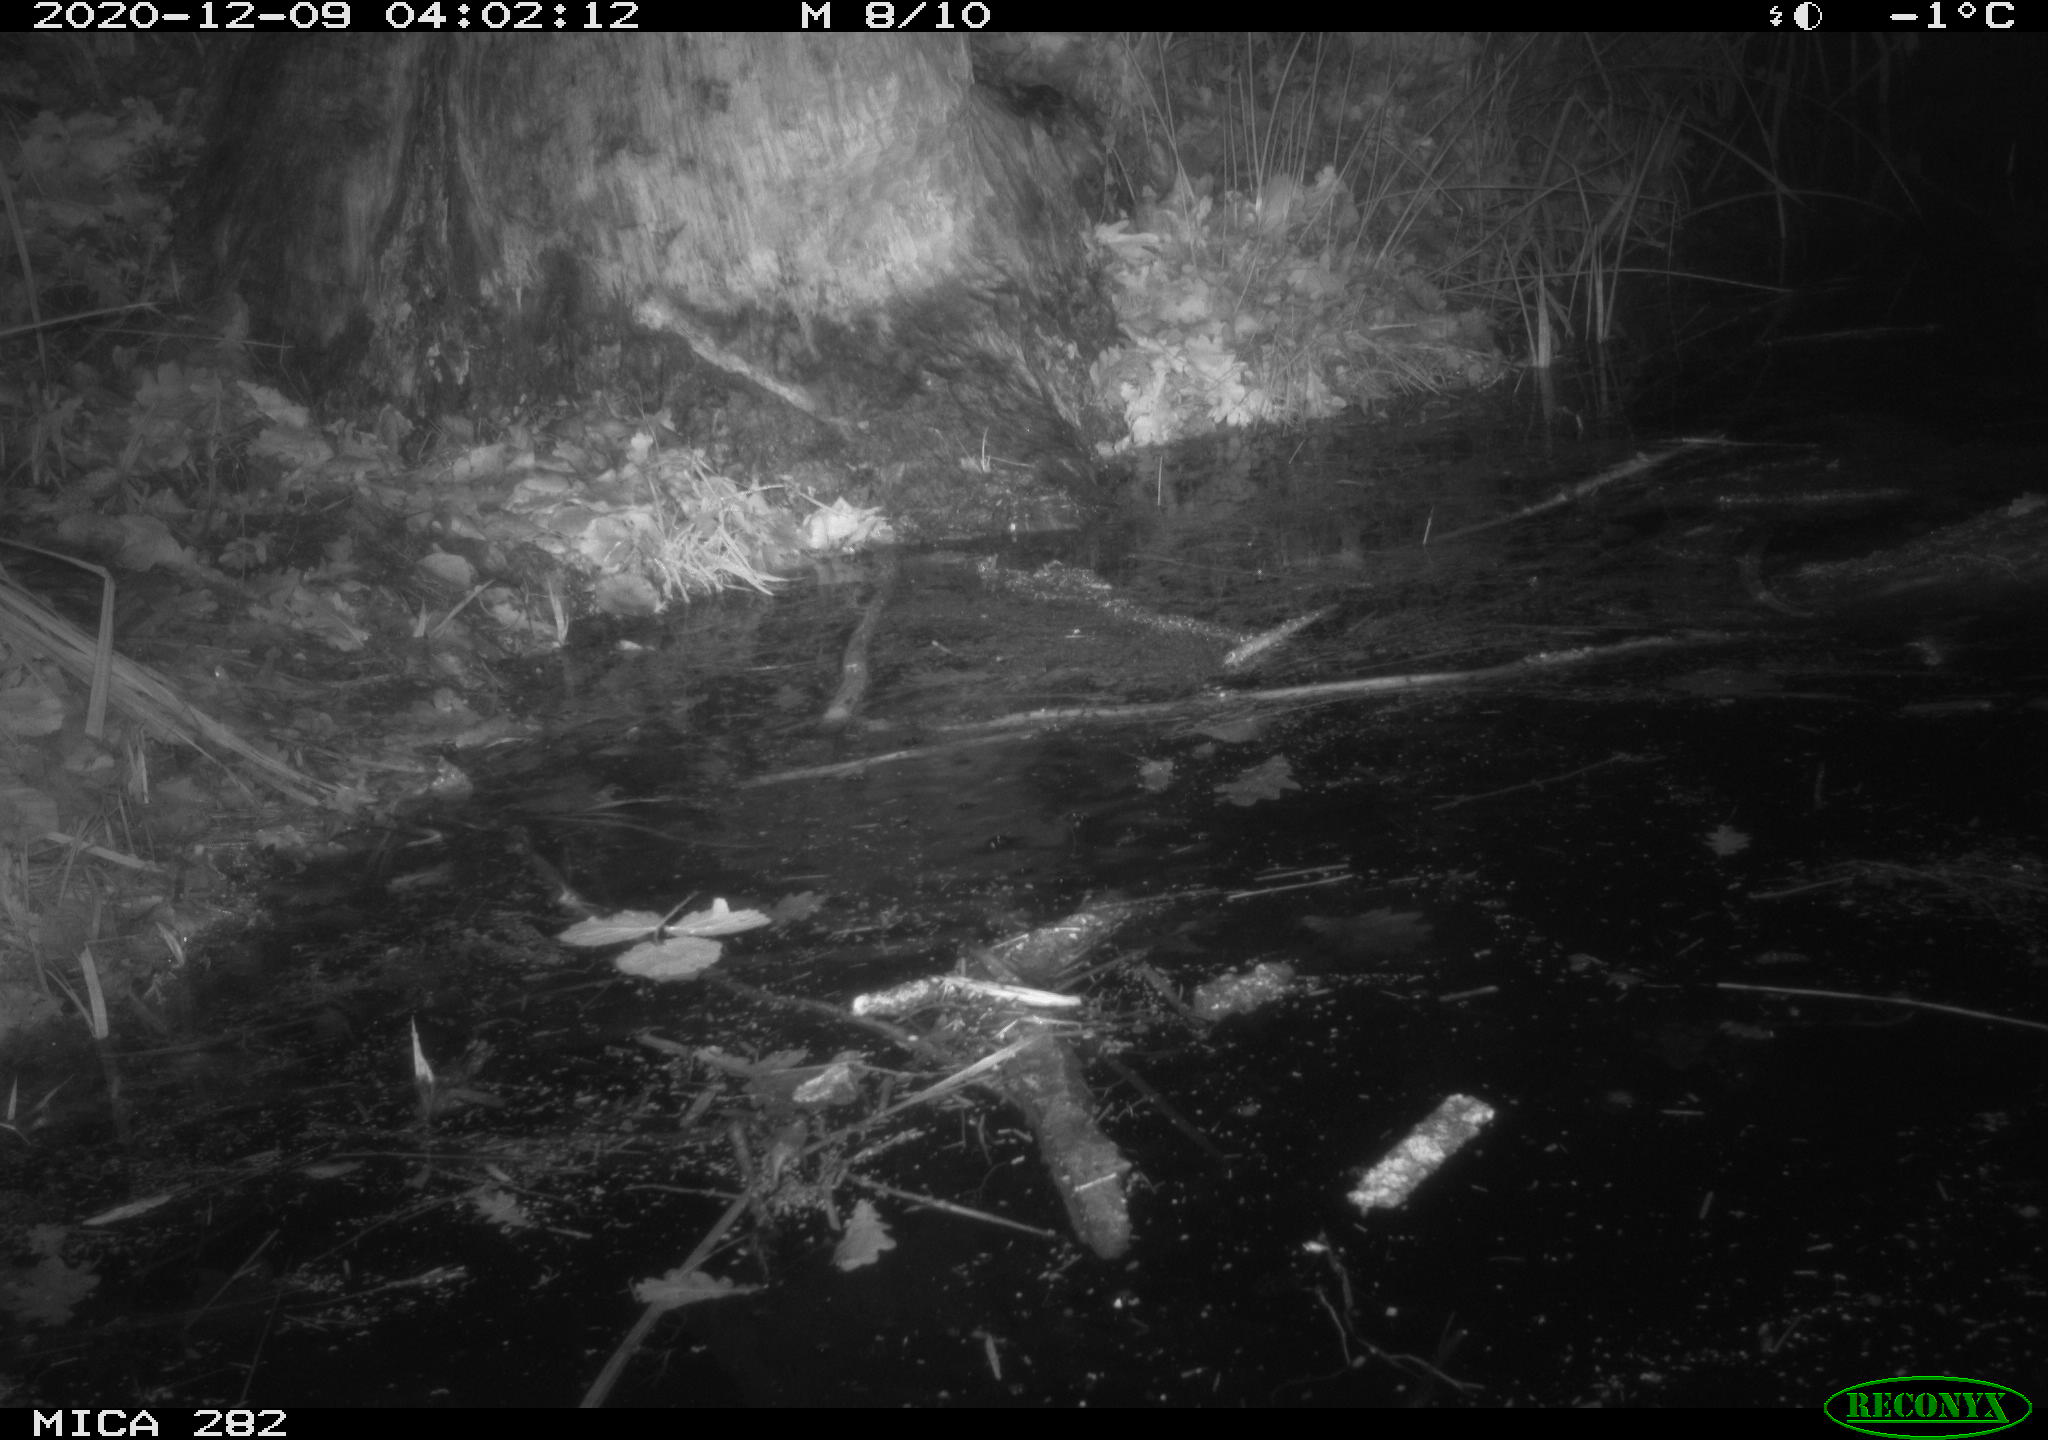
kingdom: Animalia
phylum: Chordata
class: Mammalia
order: Rodentia
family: Castoridae
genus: Castor
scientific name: Castor fiber
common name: Eurasian beaver
